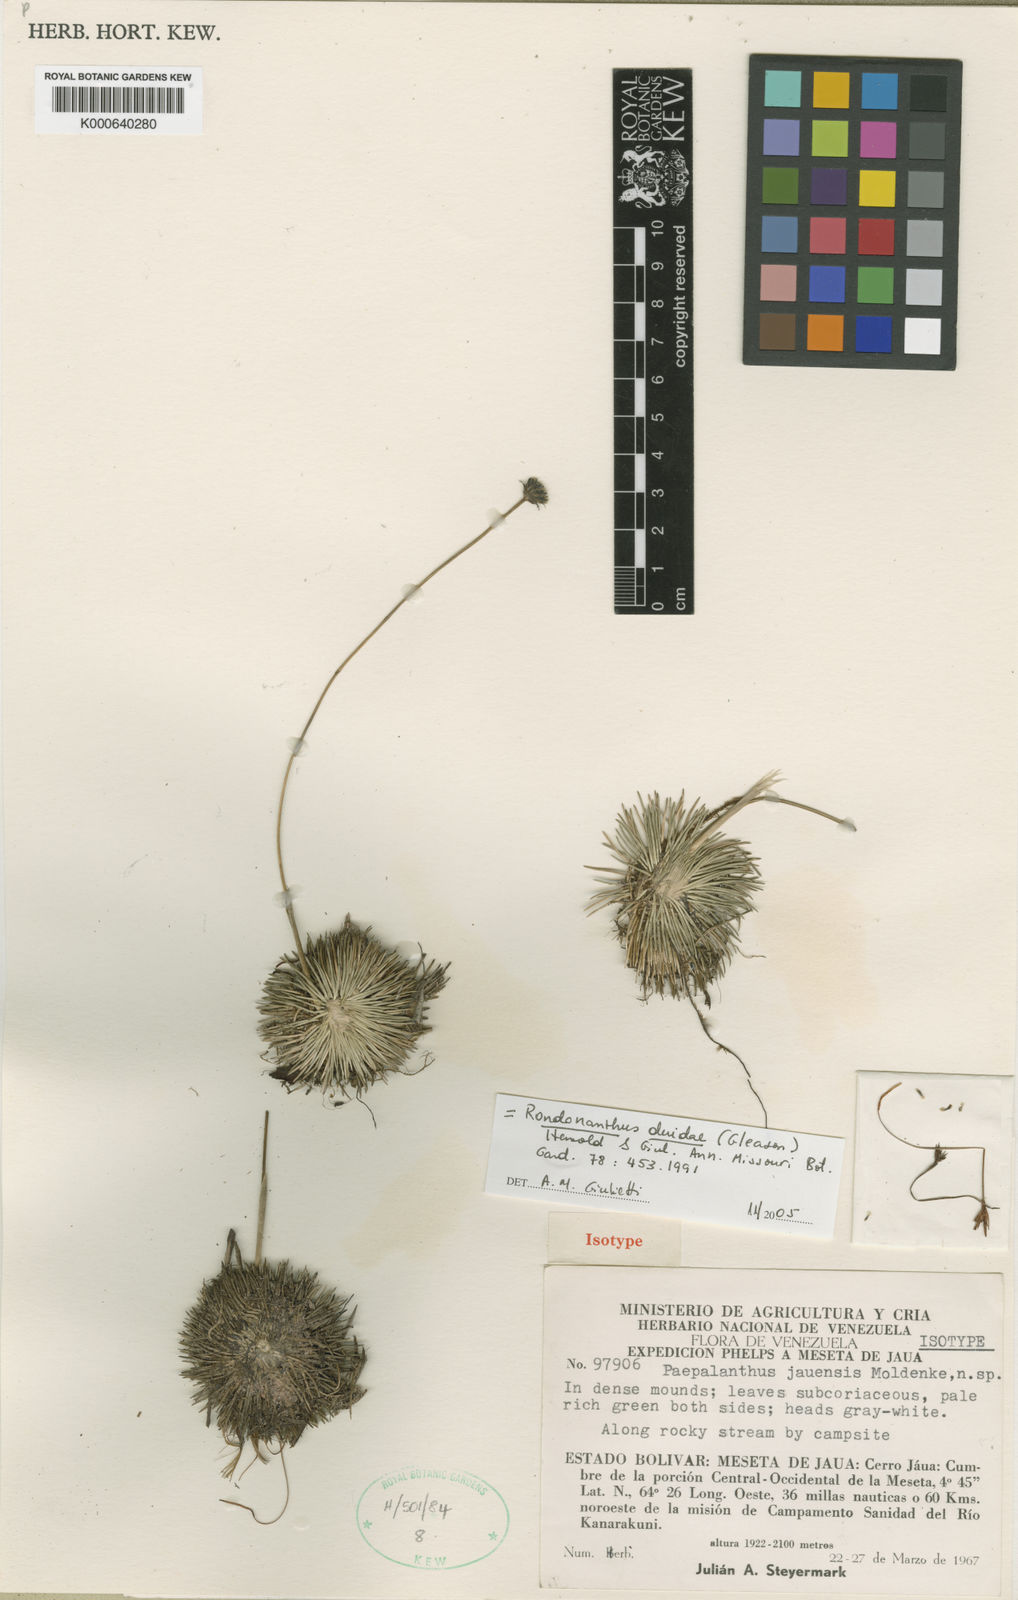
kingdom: Plantae
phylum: Tracheophyta
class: Liliopsida
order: Poales
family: Eriocaulaceae
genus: Rondonanthus
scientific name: Rondonanthus
